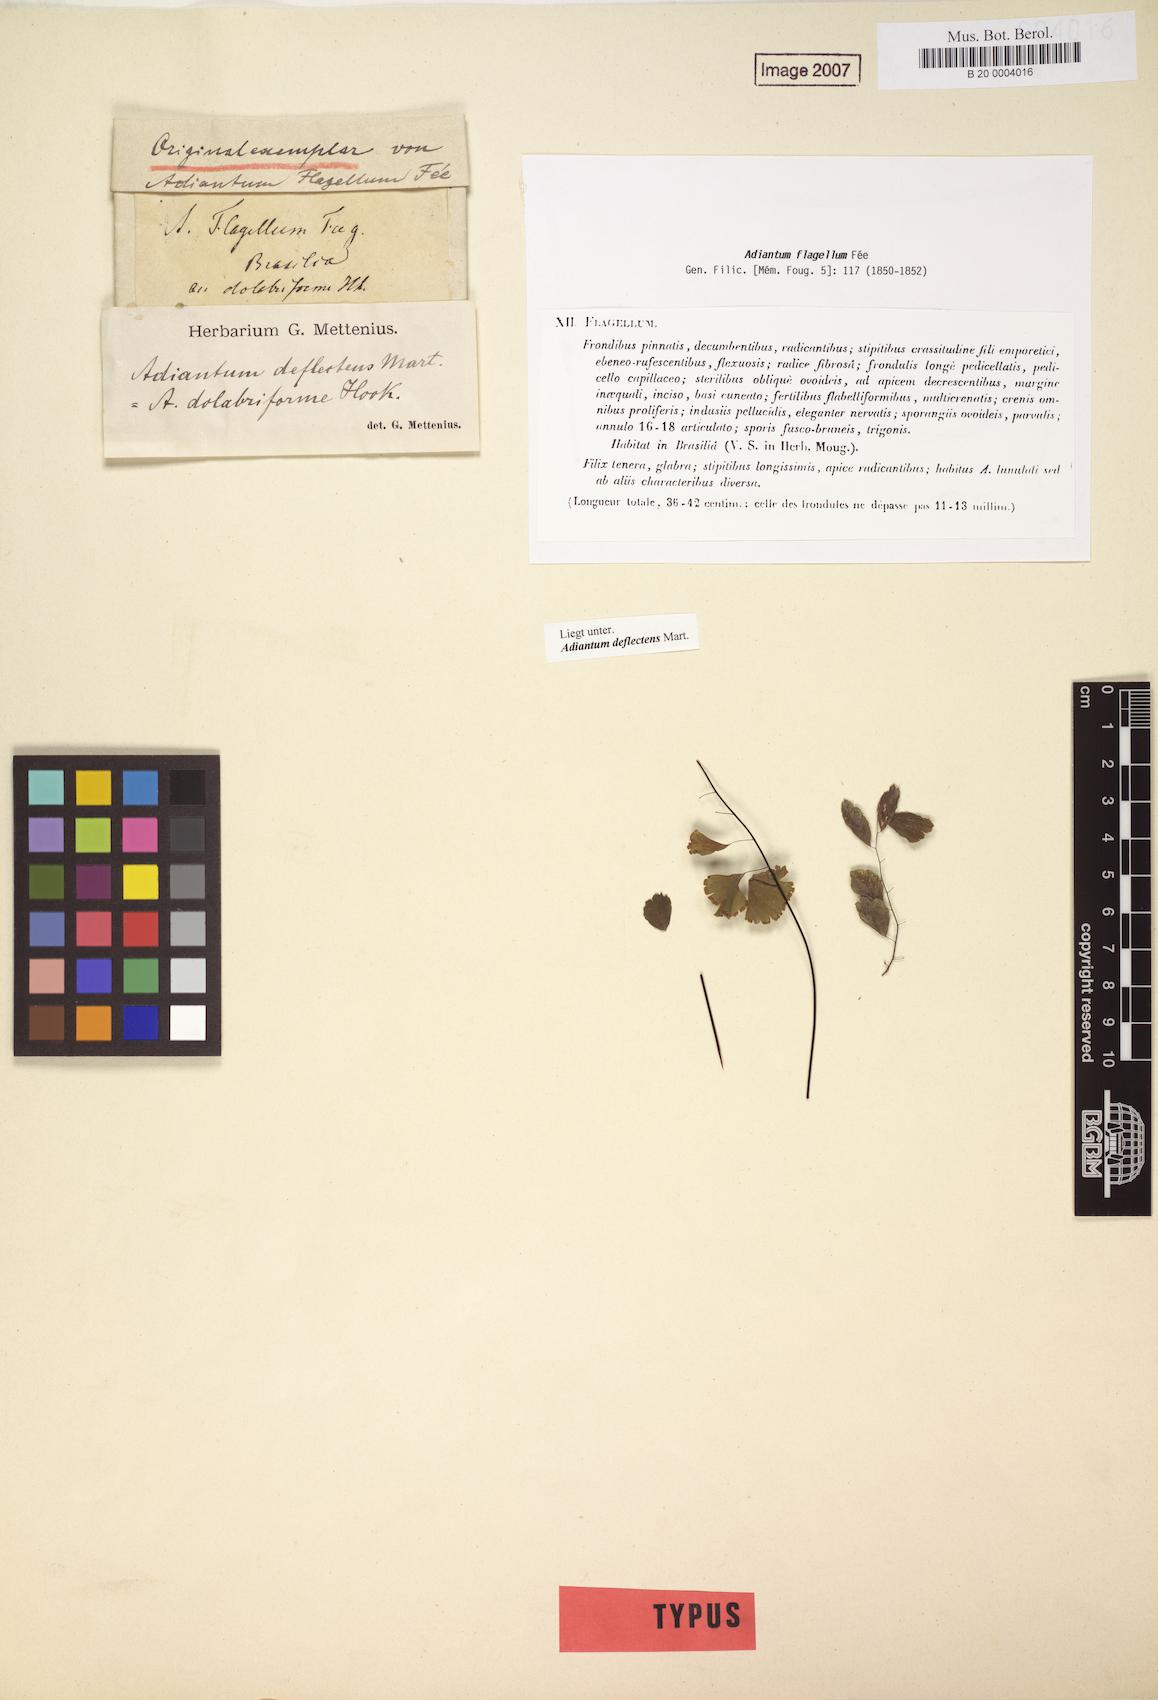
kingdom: Plantae
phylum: Tracheophyta
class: Polypodiopsida
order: Polypodiales
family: Pteridaceae
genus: Adiantum
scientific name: Adiantum deflectens
